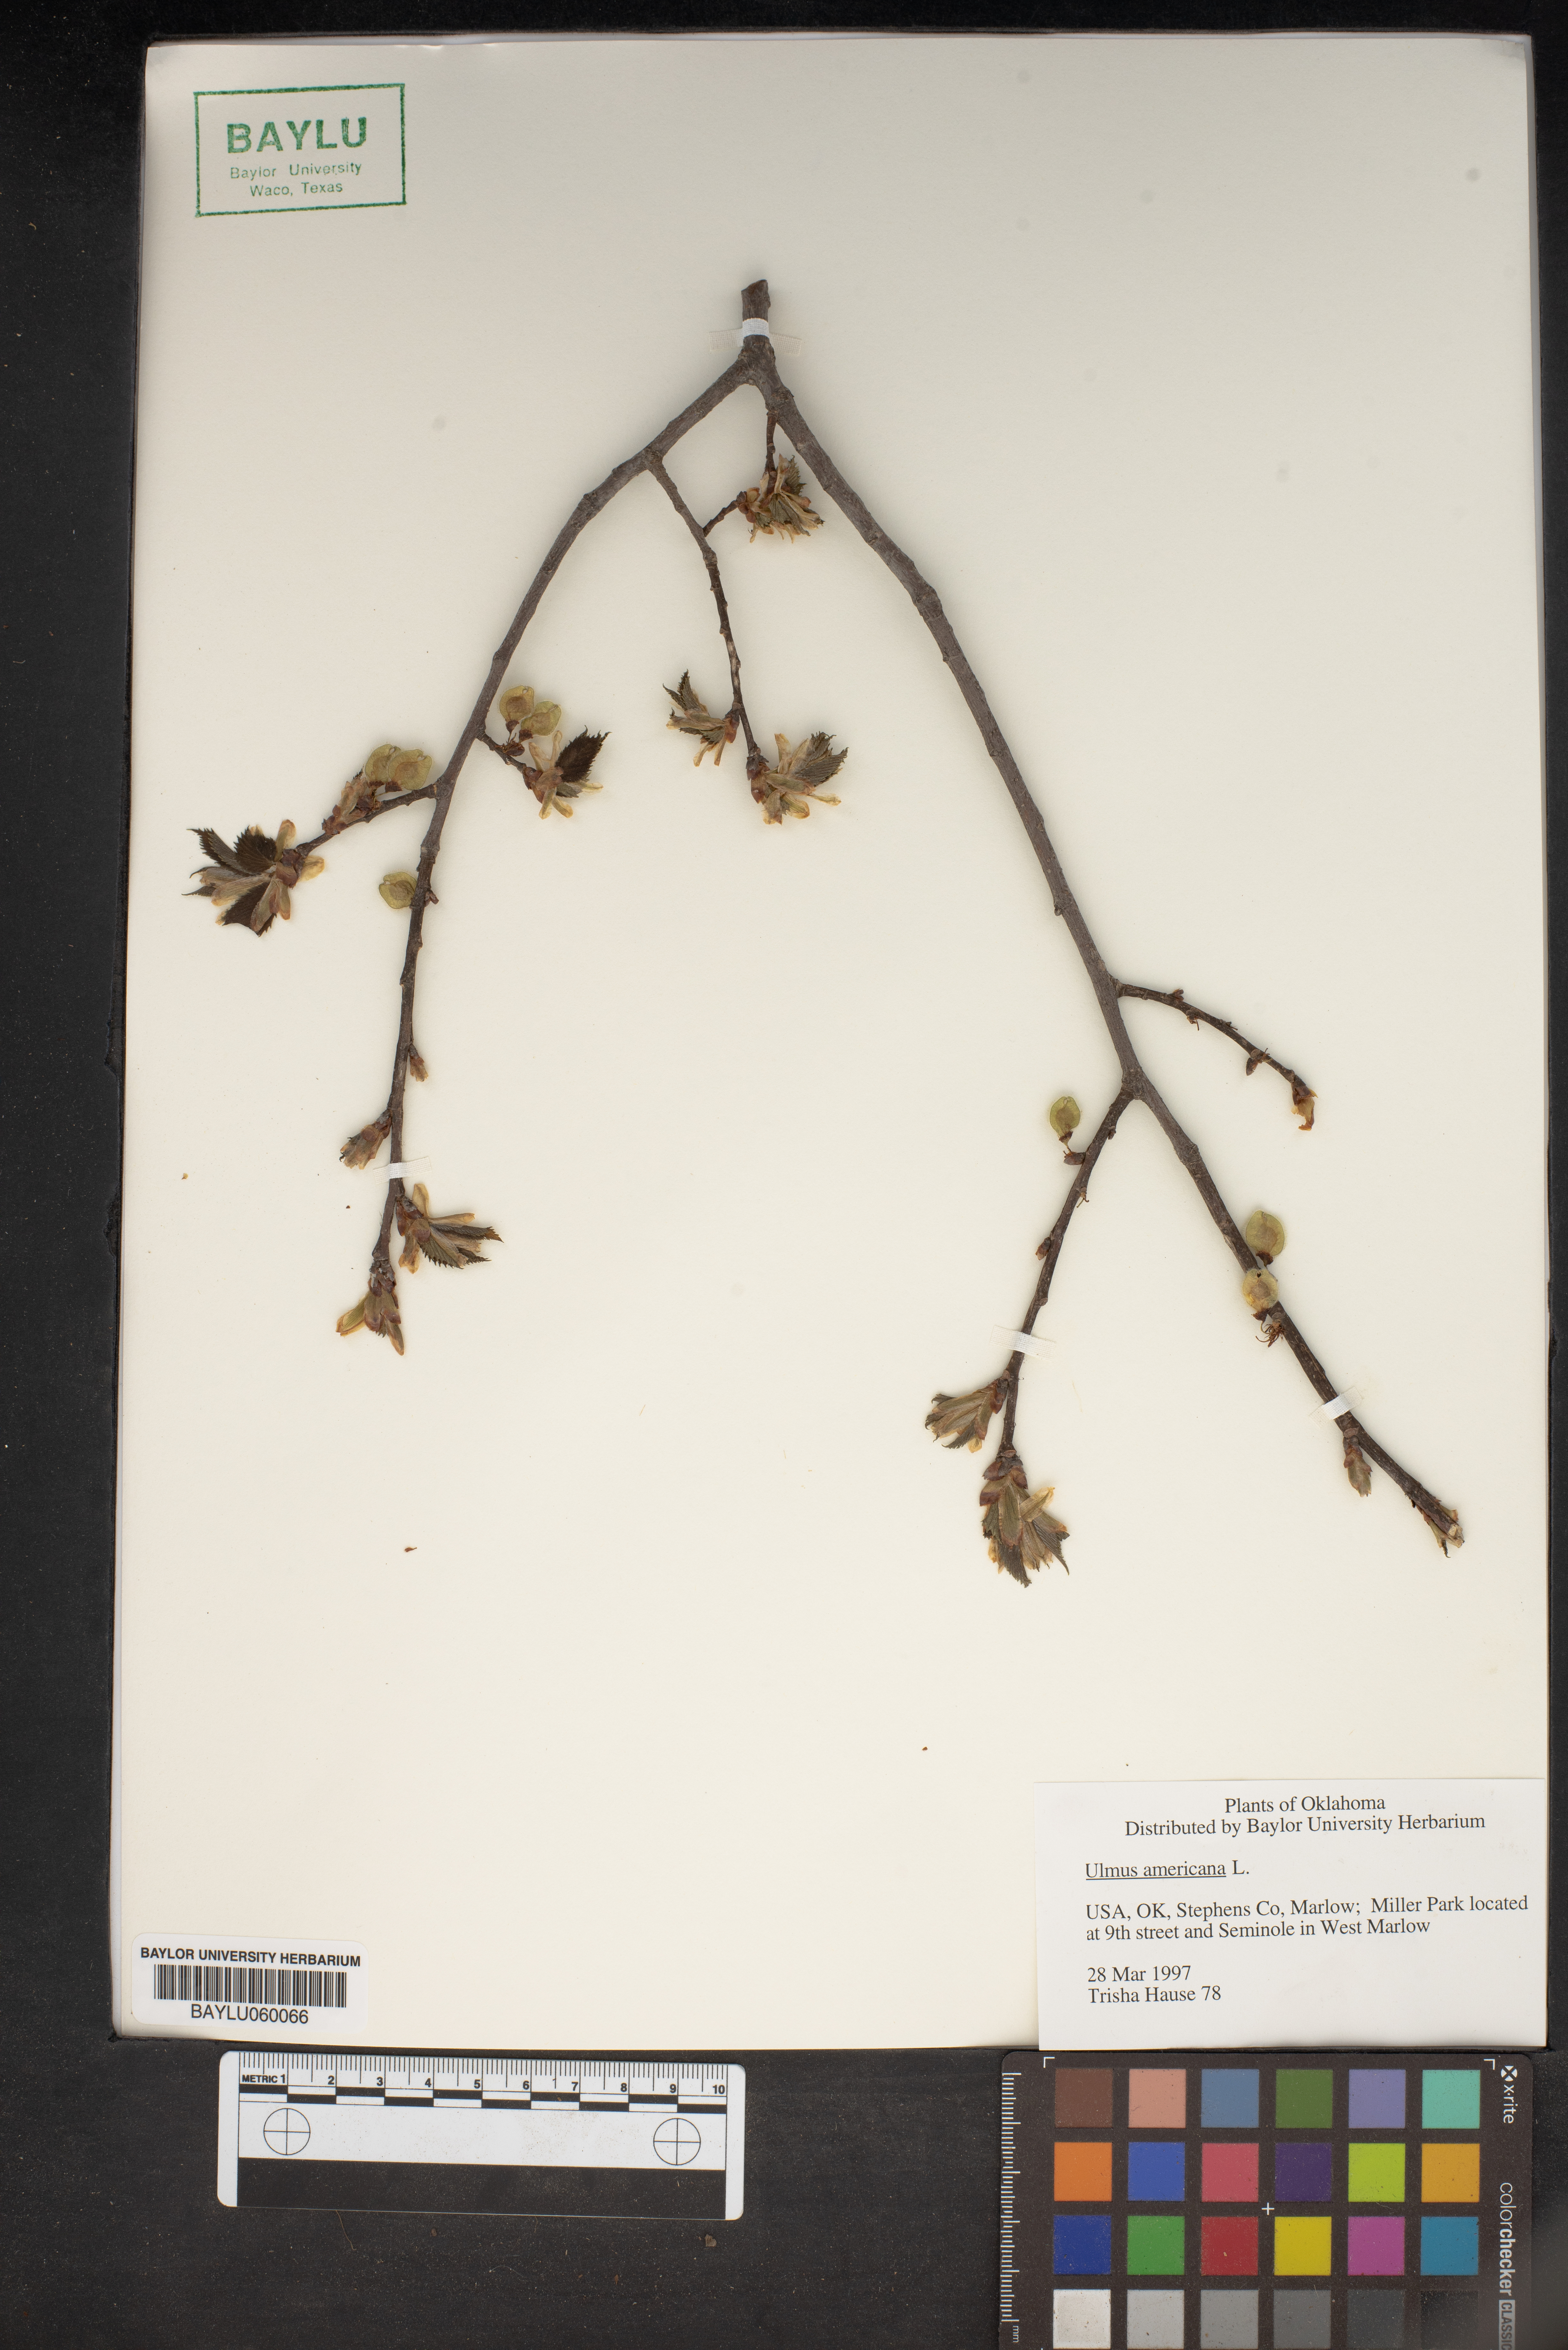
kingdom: Plantae
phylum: Tracheophyta
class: Magnoliopsida
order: Rosales
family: Ulmaceae
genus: Ulmus
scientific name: Ulmus americana
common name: American elm
